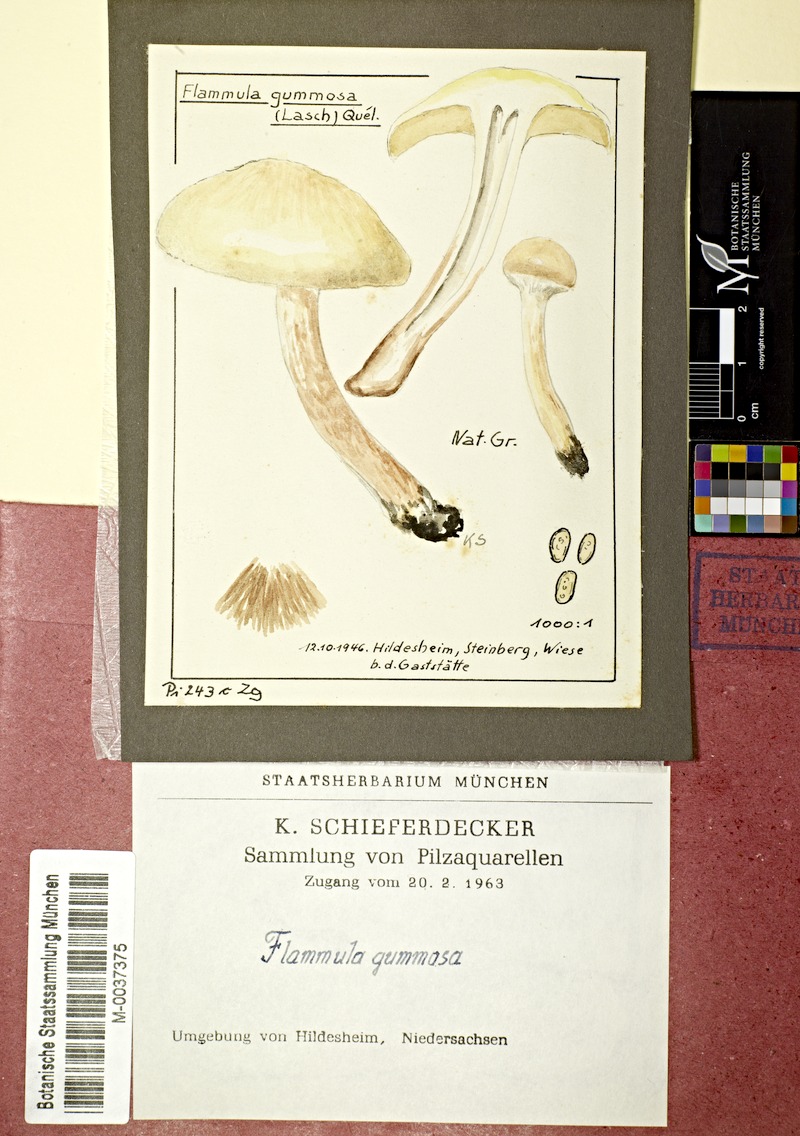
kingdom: Fungi
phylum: Basidiomycota
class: Agaricomycetes
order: Agaricales
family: Strophariaceae
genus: Pholiota
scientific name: Pholiota gummosa
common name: Sticky scalycap
